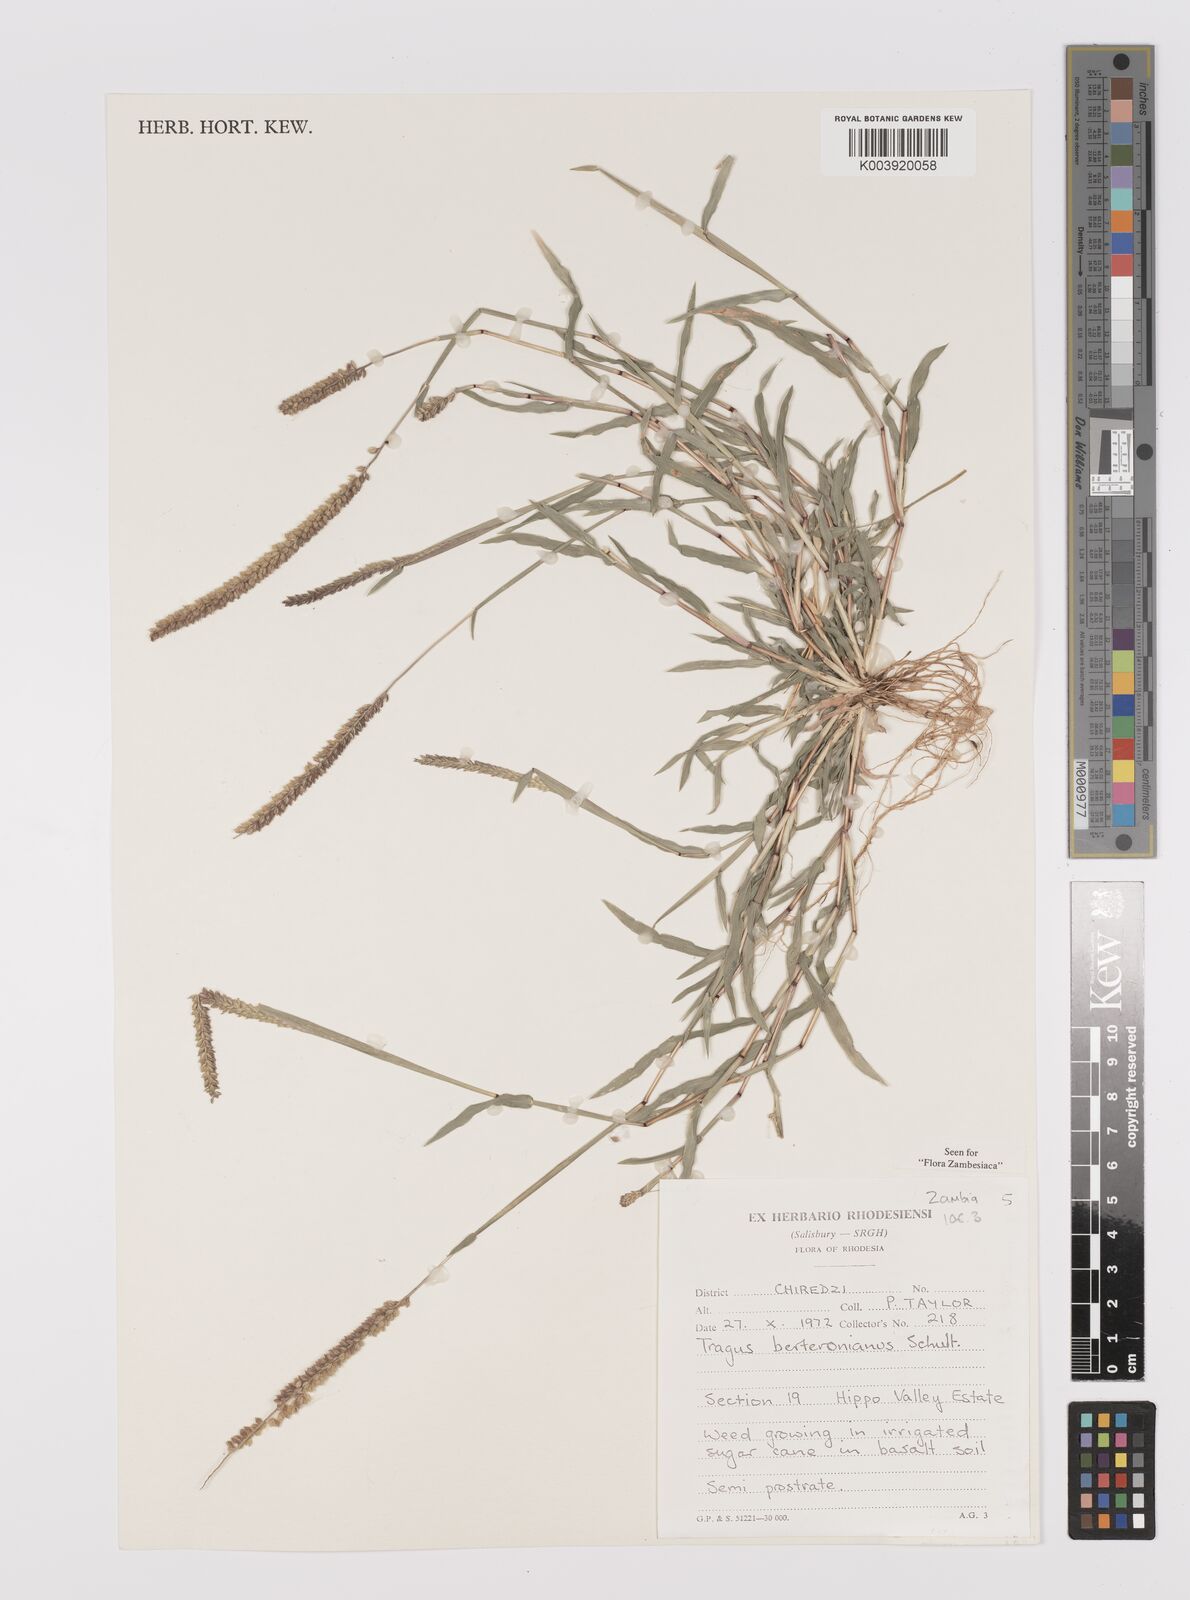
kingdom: Plantae
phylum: Tracheophyta
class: Liliopsida
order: Poales
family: Poaceae
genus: Tragus
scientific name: Tragus berteronianus
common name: African bur-grass
